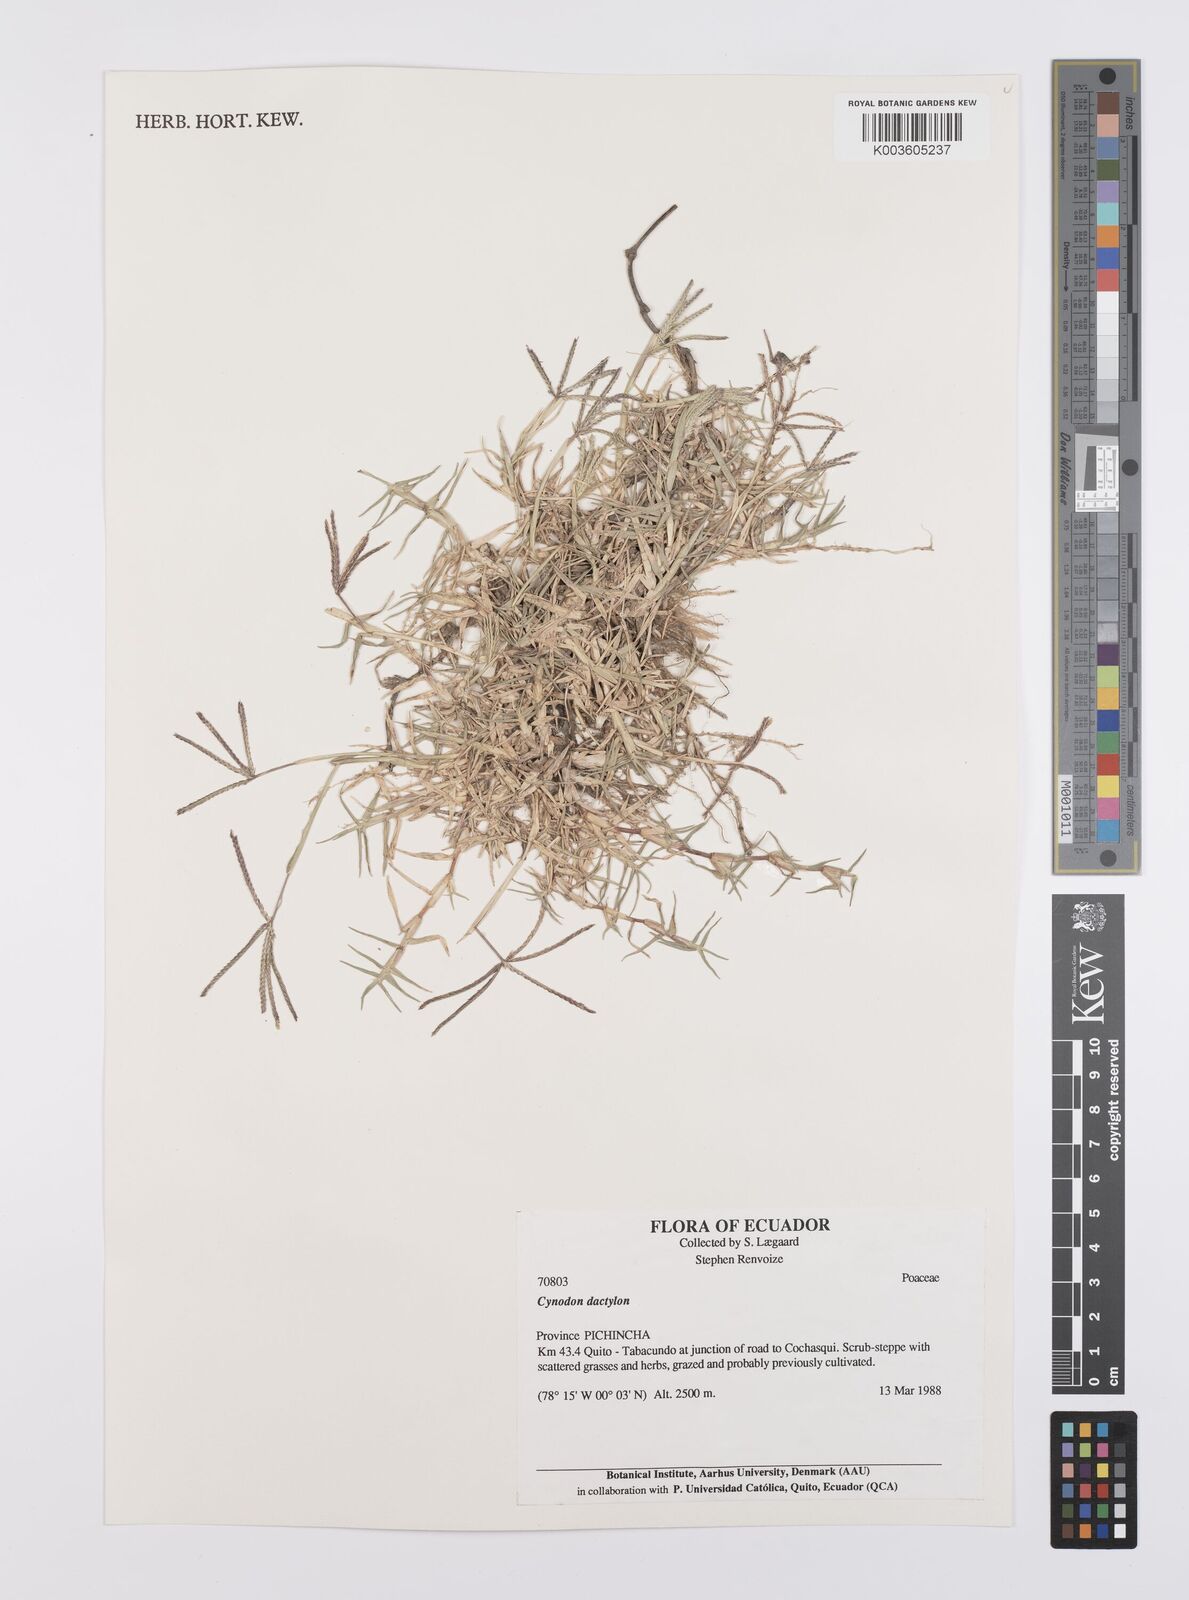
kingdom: Plantae
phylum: Tracheophyta
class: Liliopsida
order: Poales
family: Poaceae
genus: Cynodon
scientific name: Cynodon dactylon
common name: Bermuda grass
